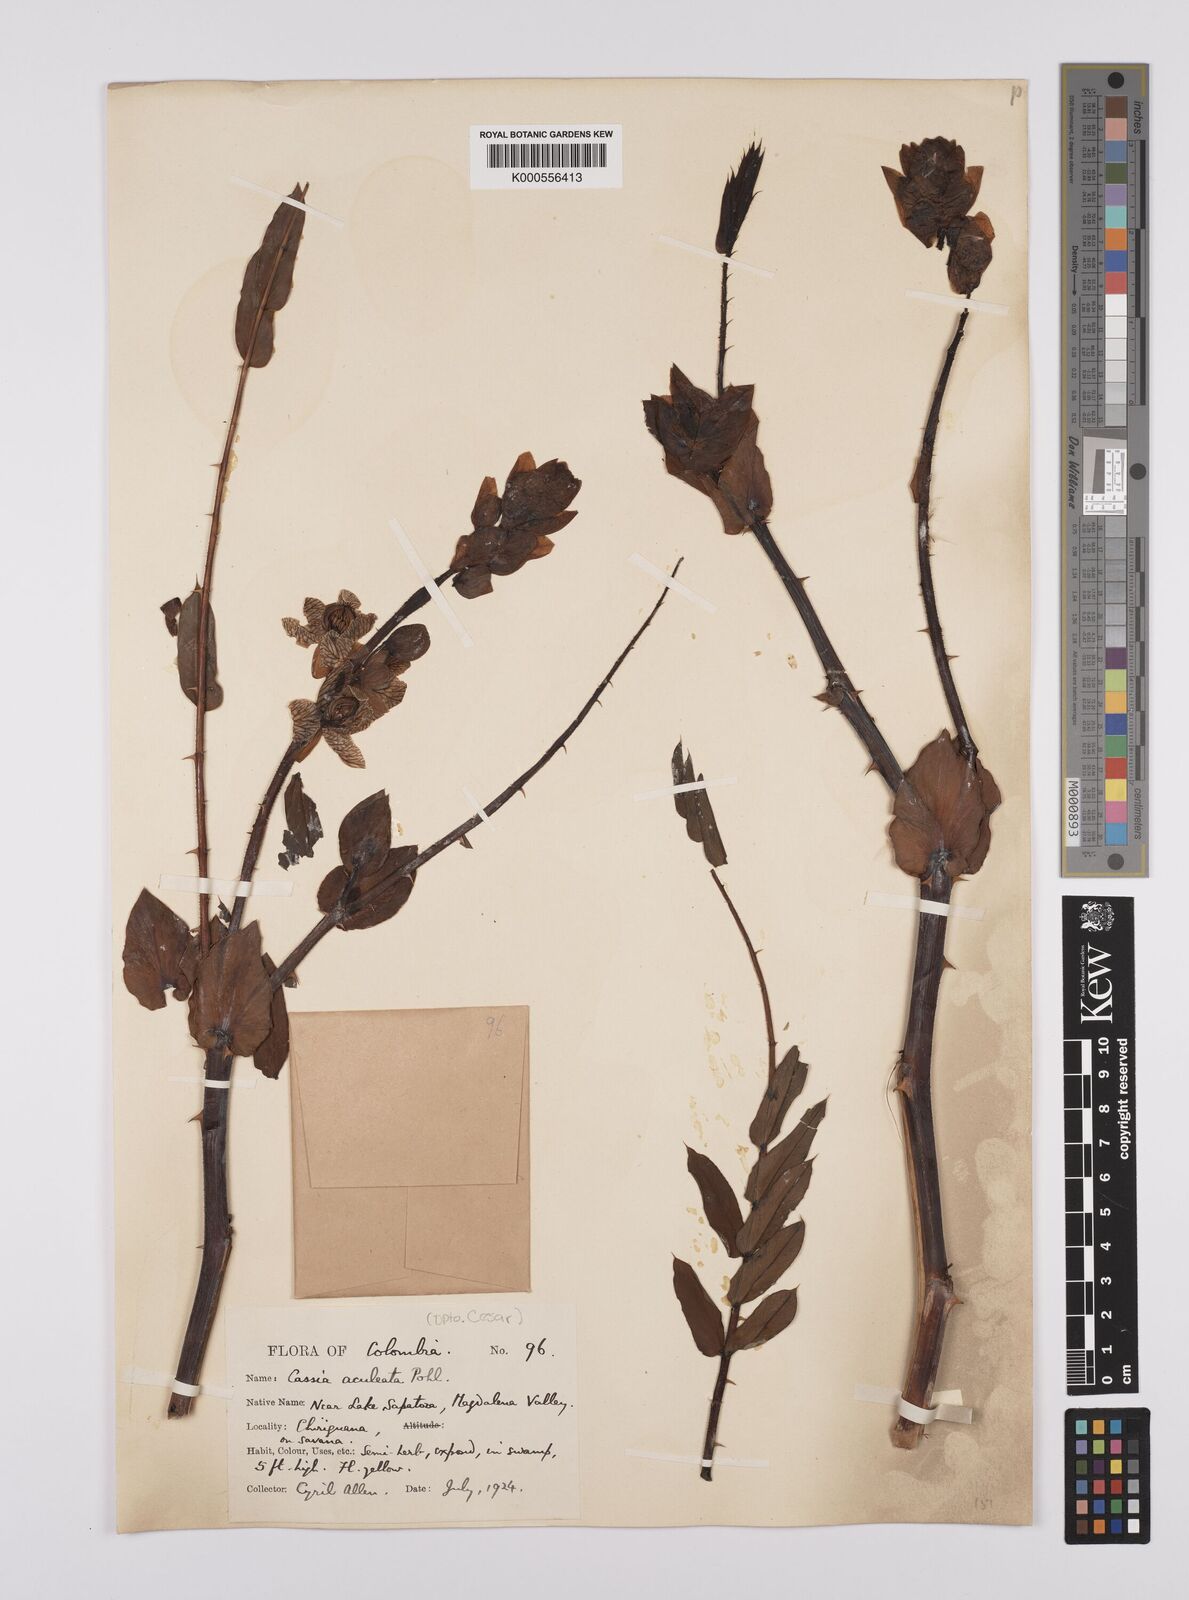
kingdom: Plantae
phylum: Tracheophyta
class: Magnoliopsida
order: Fabales
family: Fabaceae
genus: Senna
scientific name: Senna aculeata
